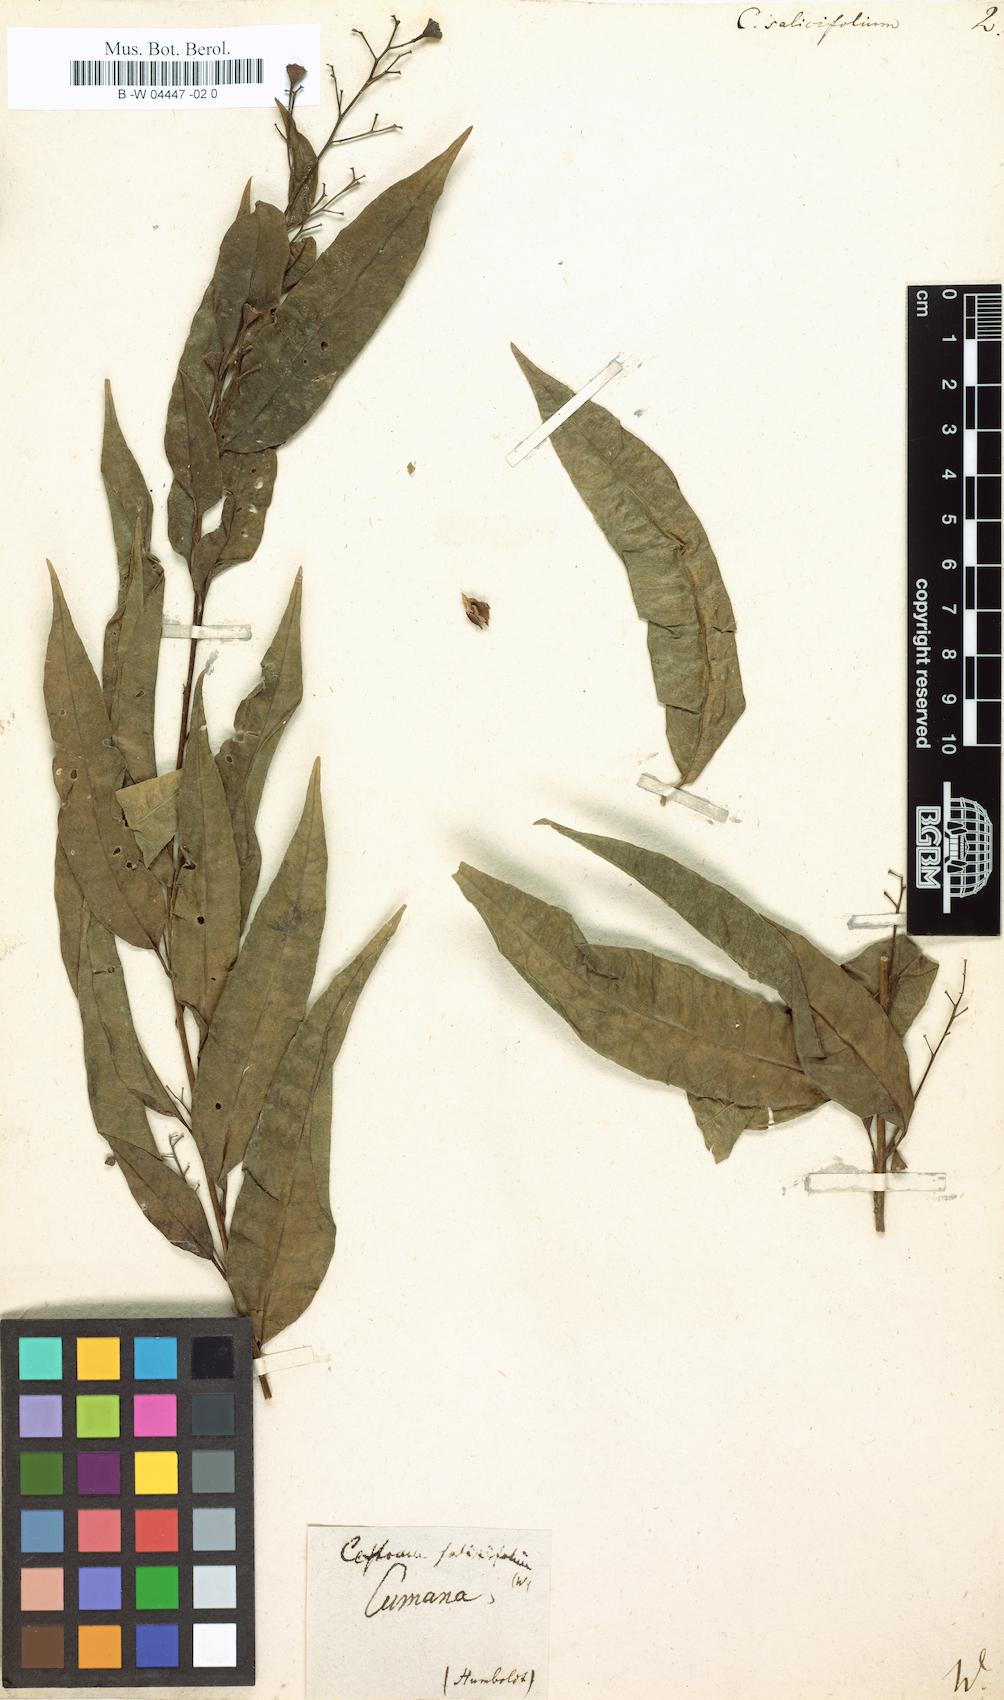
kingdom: Plantae
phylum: Tracheophyta
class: Magnoliopsida
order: Solanales
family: Solanaceae
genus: Cestrum
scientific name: Cestrum salicifolium
